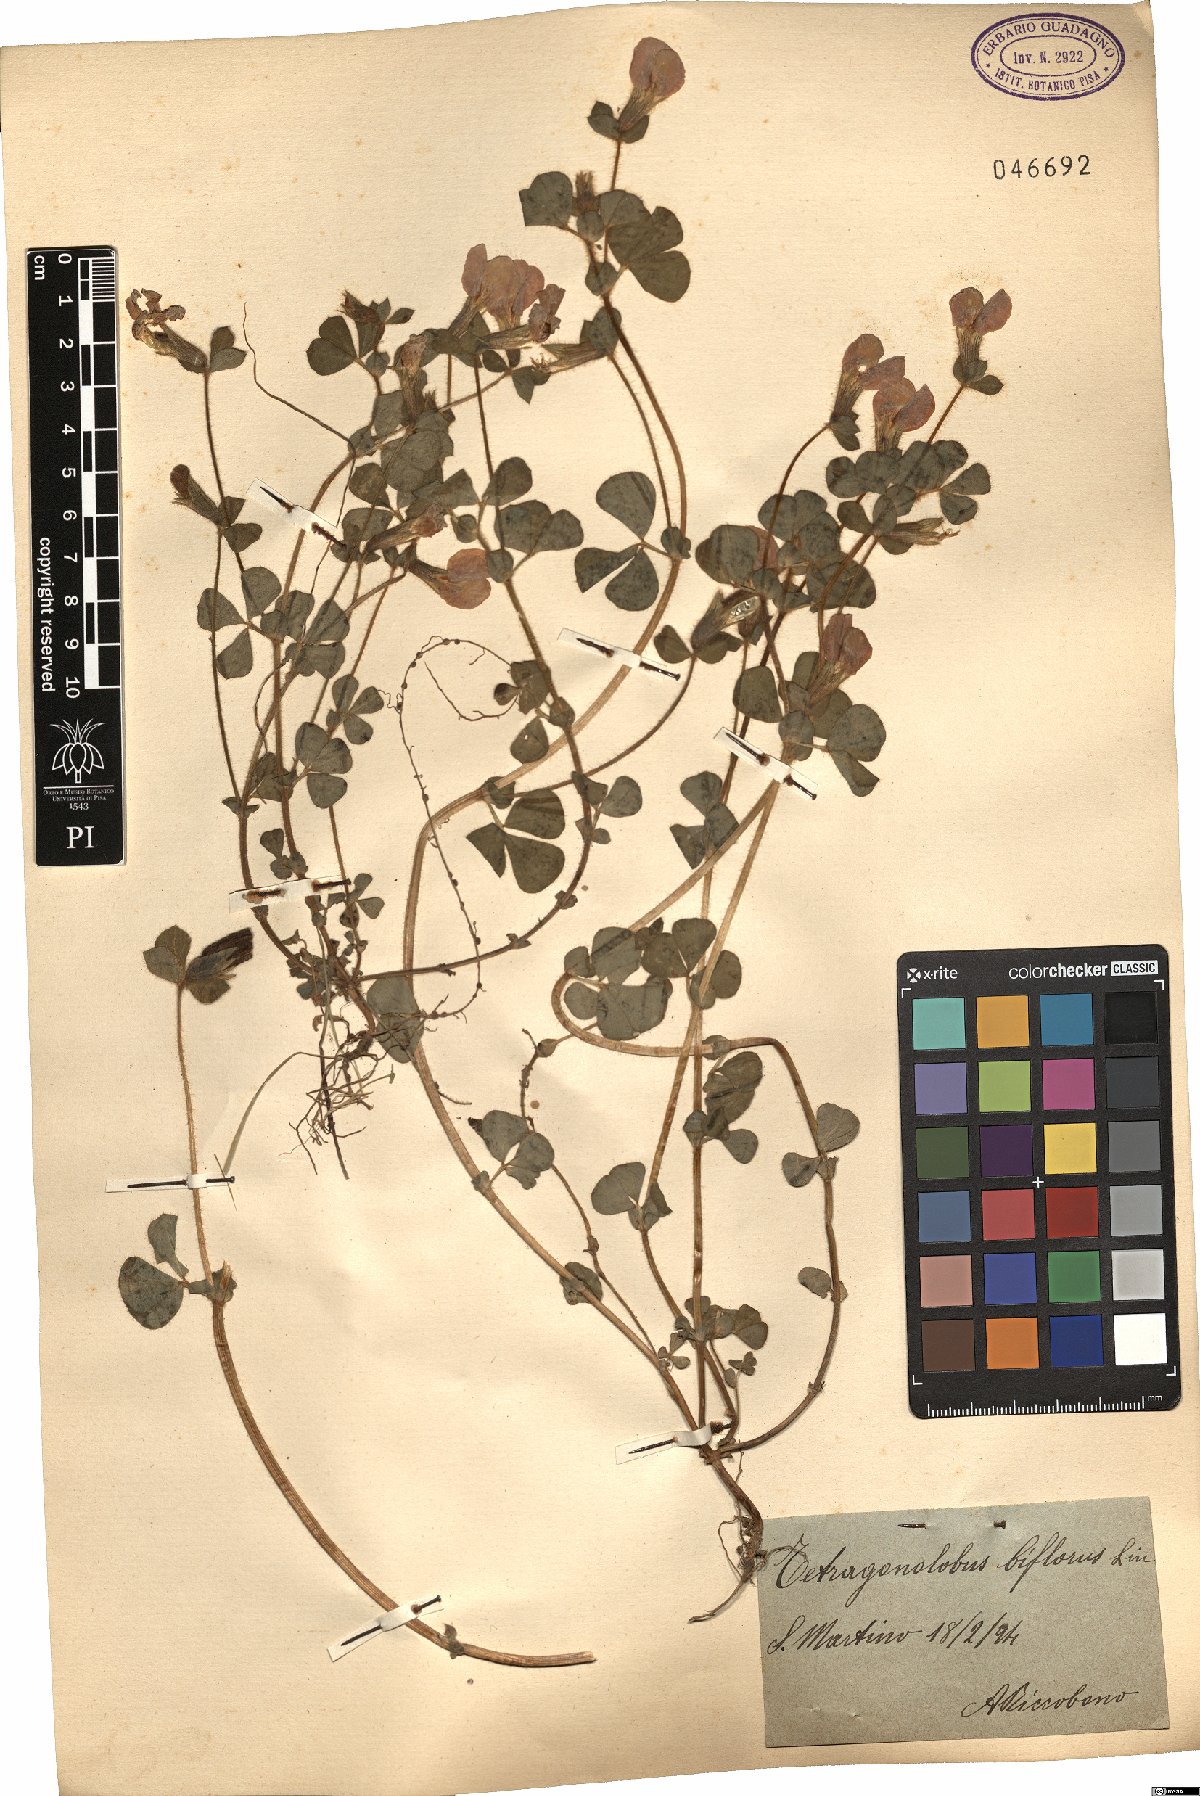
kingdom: Plantae
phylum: Tracheophyta
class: Magnoliopsida
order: Fabales
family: Fabaceae
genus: Lotus
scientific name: Lotus biflorus
